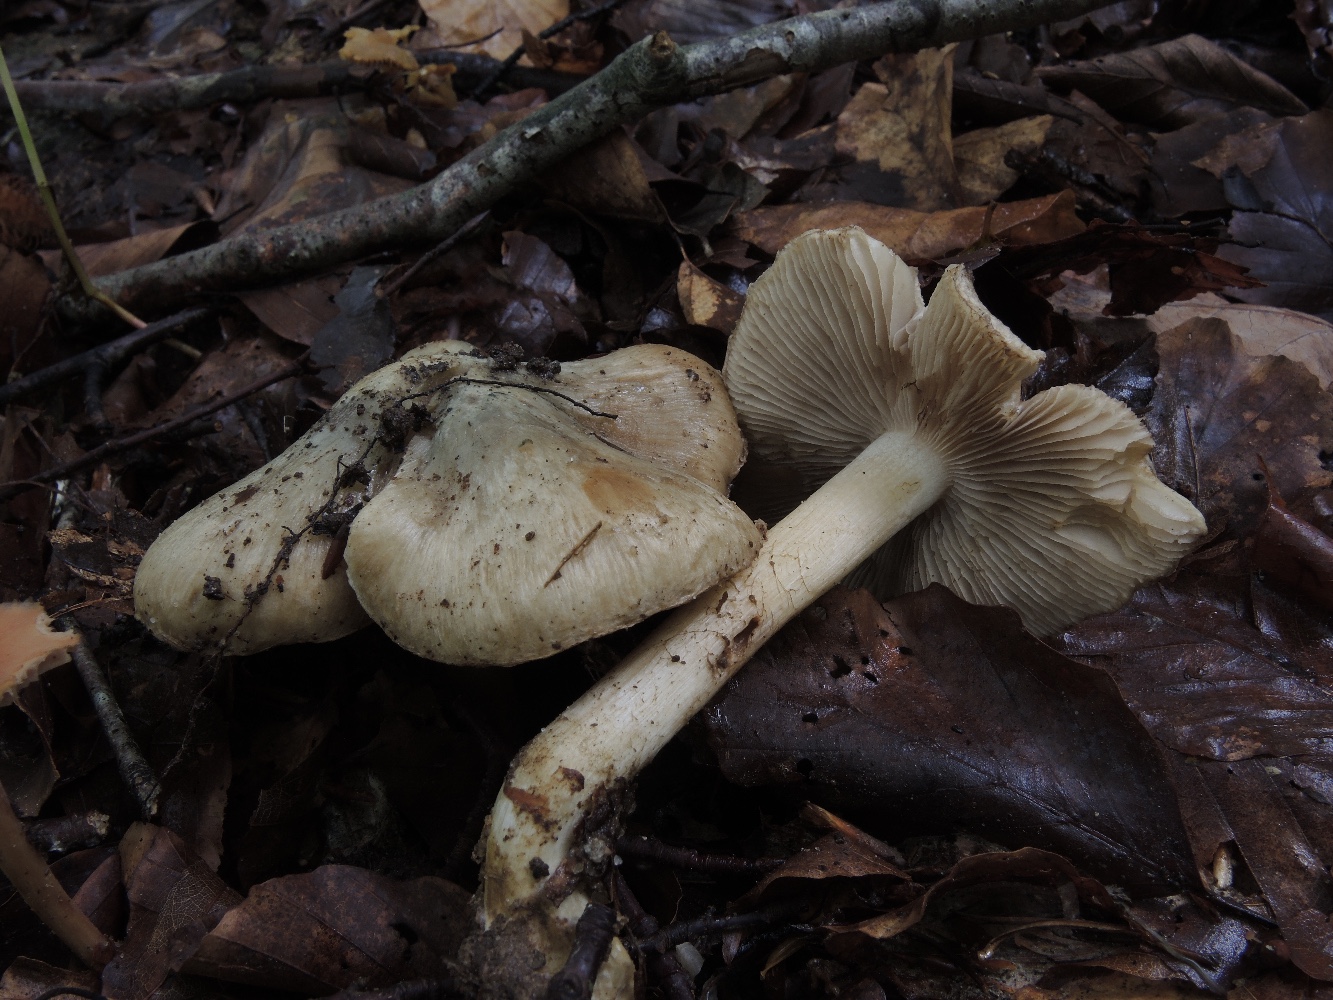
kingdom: Fungi
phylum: Basidiomycota
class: Agaricomycetes
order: Agaricales
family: Inocybaceae
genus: Inocybe
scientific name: Inocybe corydalina
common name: grønpuklet trævlhat
